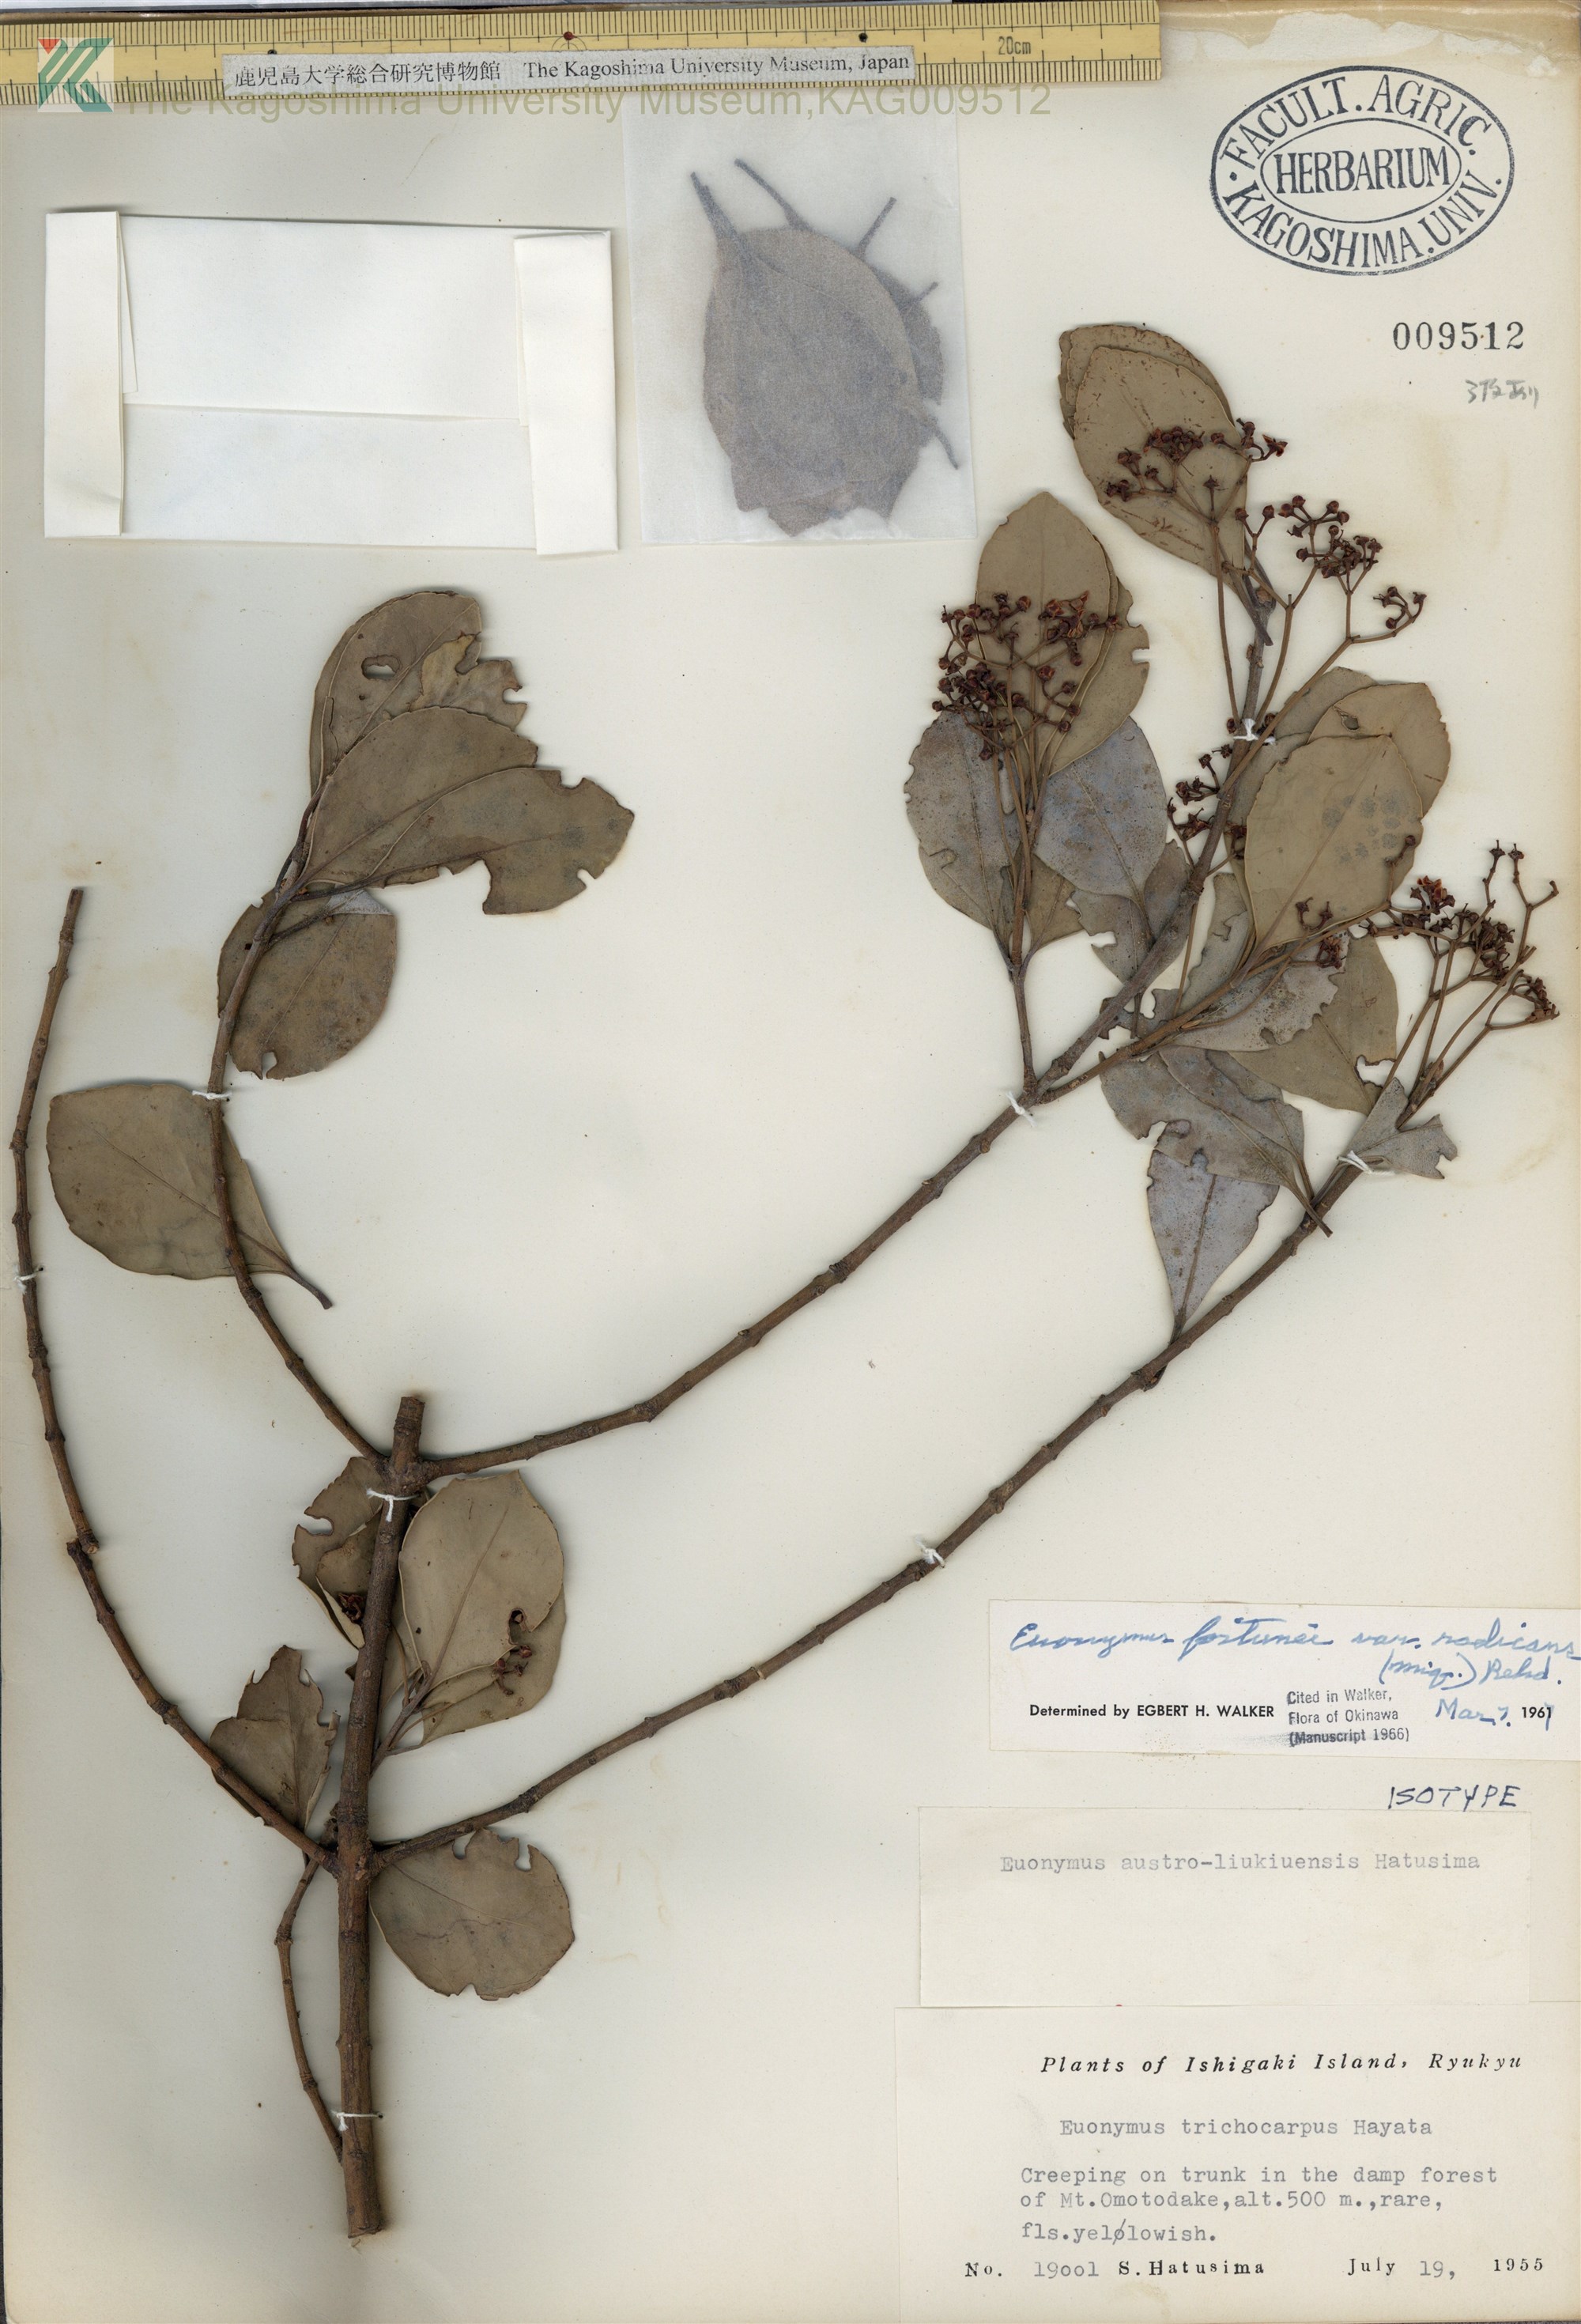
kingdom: Plantae
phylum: Tracheophyta
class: Magnoliopsida
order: Celastrales
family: Celastraceae
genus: Euonymus
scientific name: Euonymus fortunei
